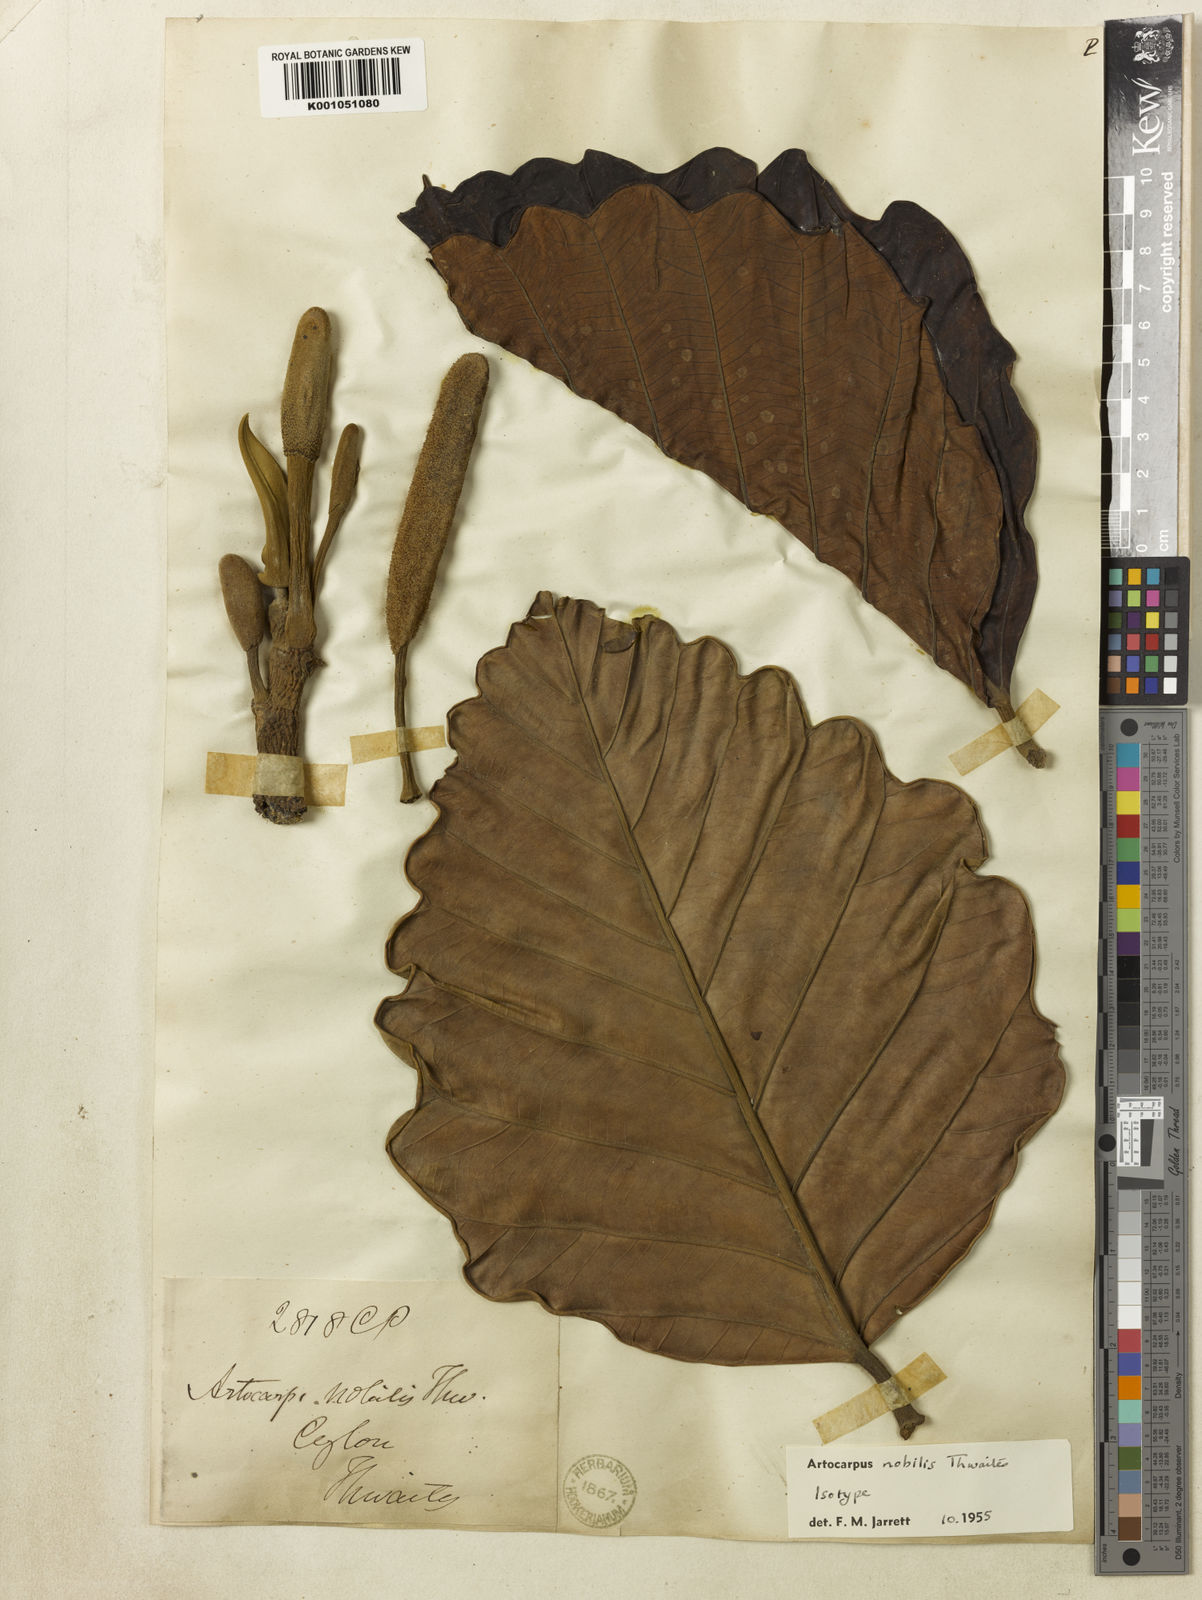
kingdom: Plantae
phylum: Tracheophyta
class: Magnoliopsida
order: Rosales
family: Moraceae
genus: Artocarpus
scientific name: Artocarpus nobilis
